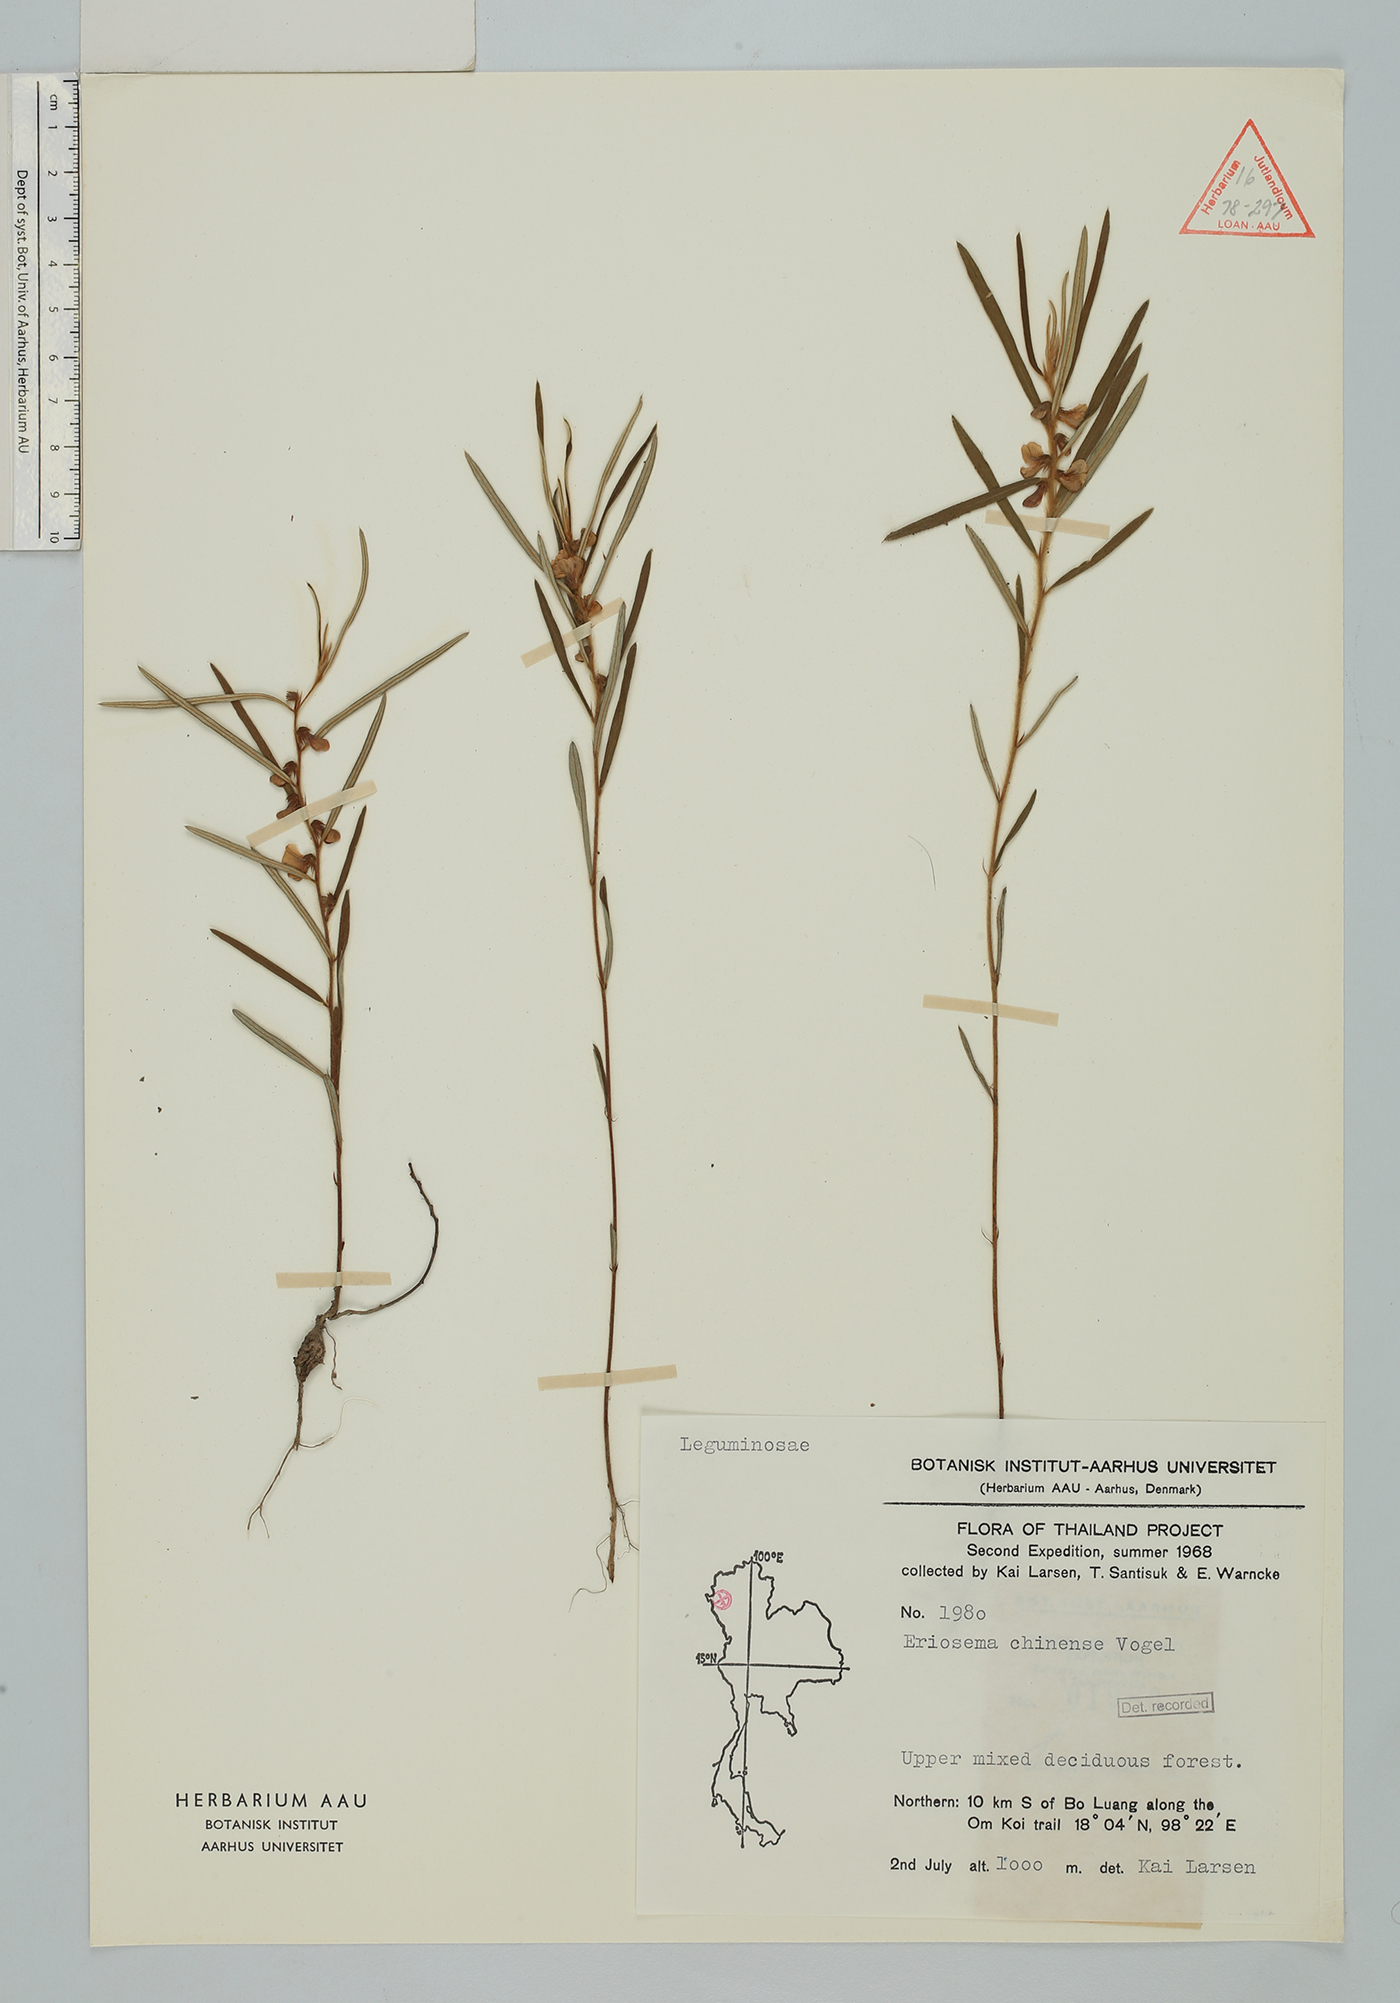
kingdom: Plantae
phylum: Tracheophyta
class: Magnoliopsida
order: Fabales
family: Fabaceae
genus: Eriosema
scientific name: Eriosema chinense
